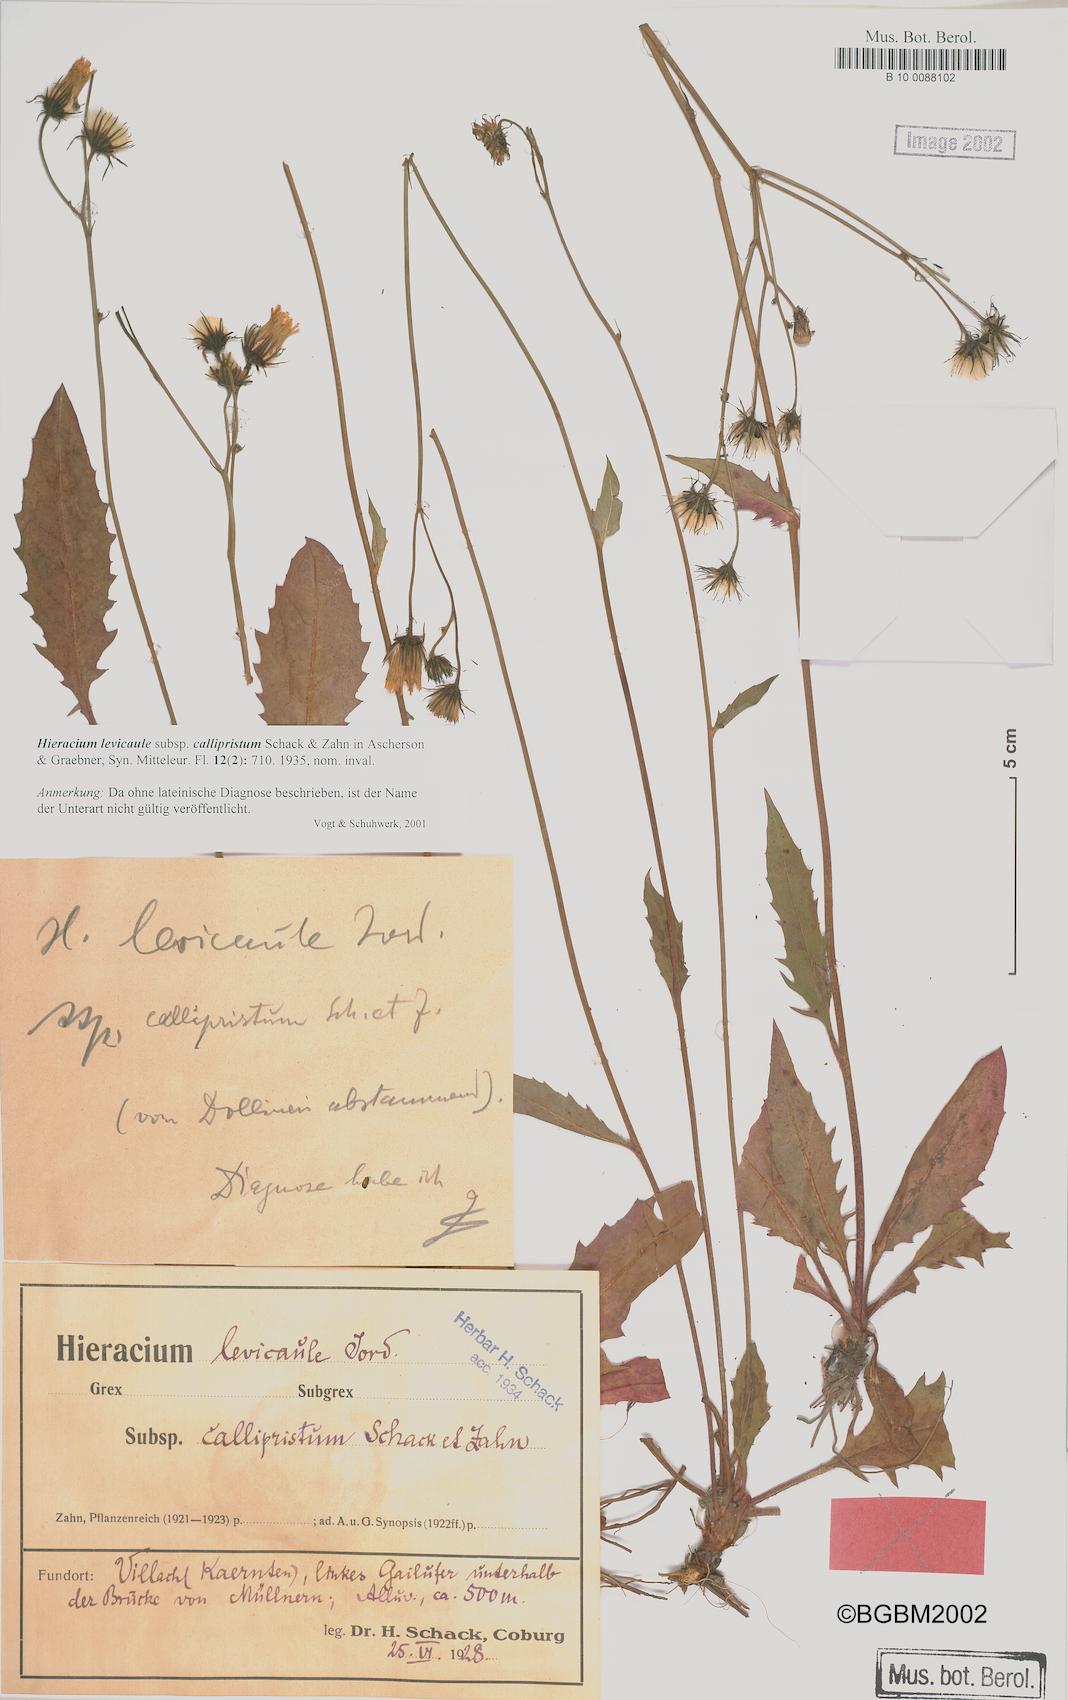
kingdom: Plantae
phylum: Tracheophyta
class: Magnoliopsida
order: Asterales
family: Asteraceae
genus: Hieracium
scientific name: Hieracium
